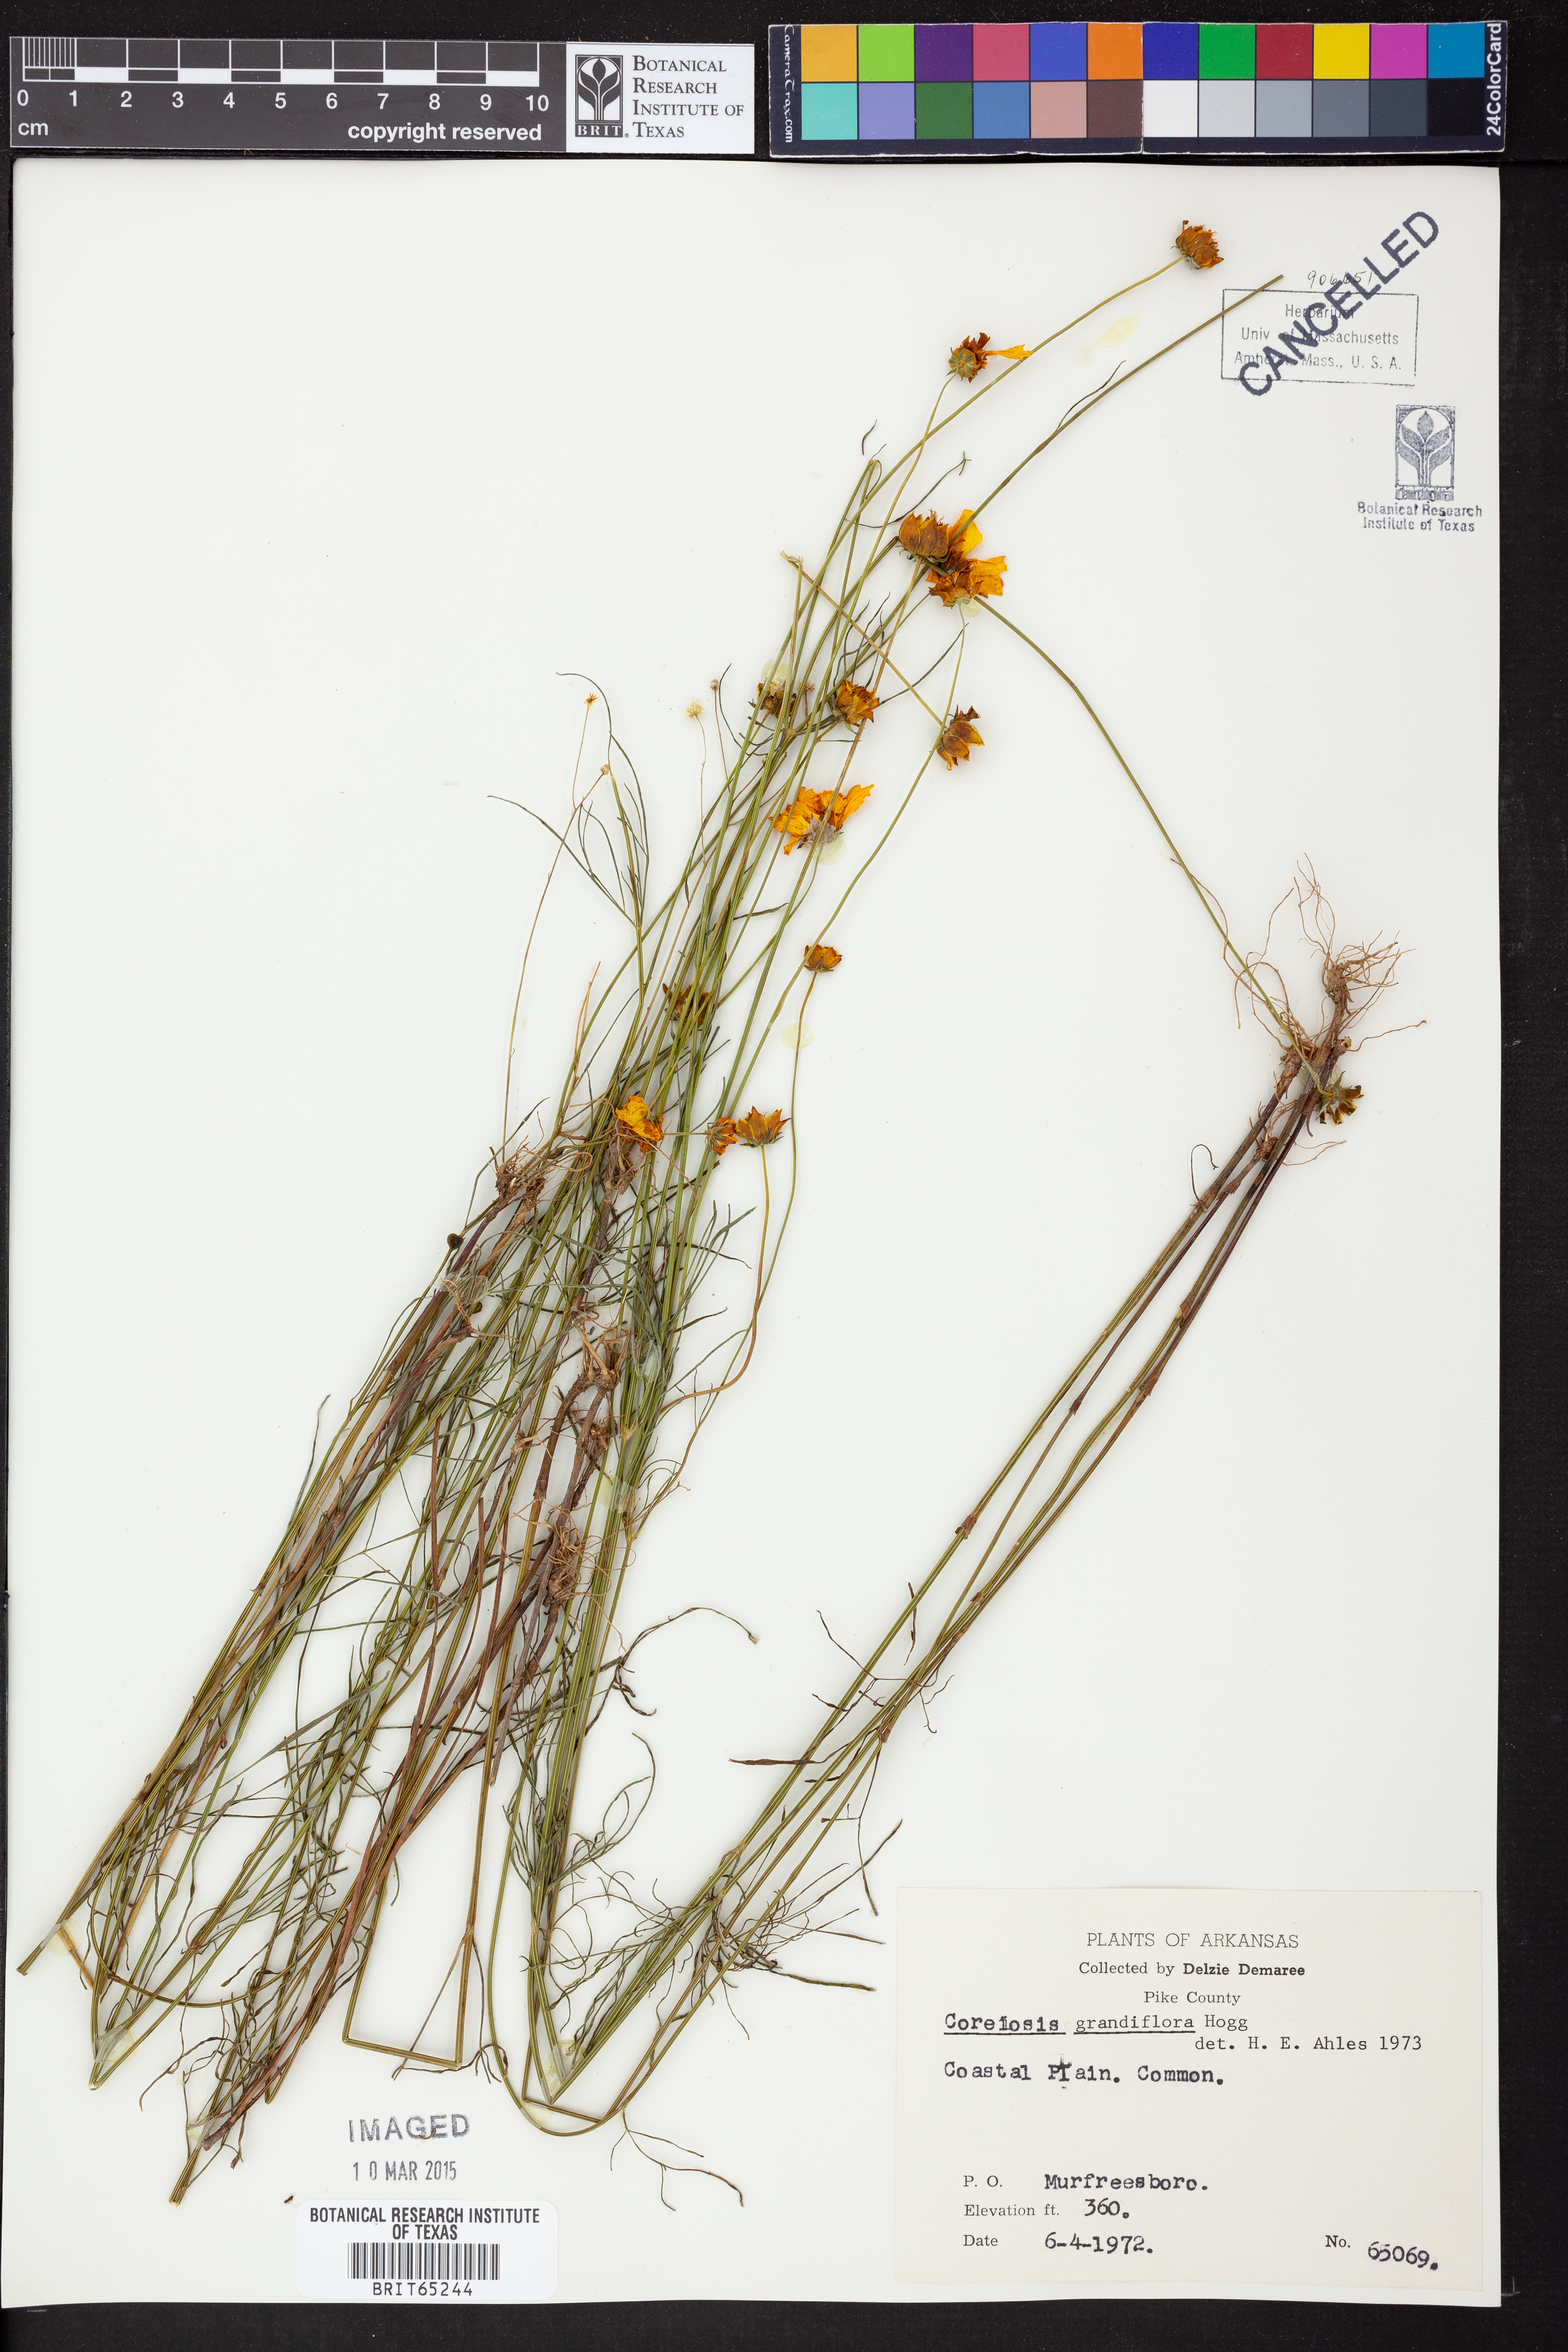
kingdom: Plantae
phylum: Tracheophyta
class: Magnoliopsida
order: Asterales
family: Asteraceae
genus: Coreopsis
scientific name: Coreopsis grandiflora
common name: Large-flowered tickseed
